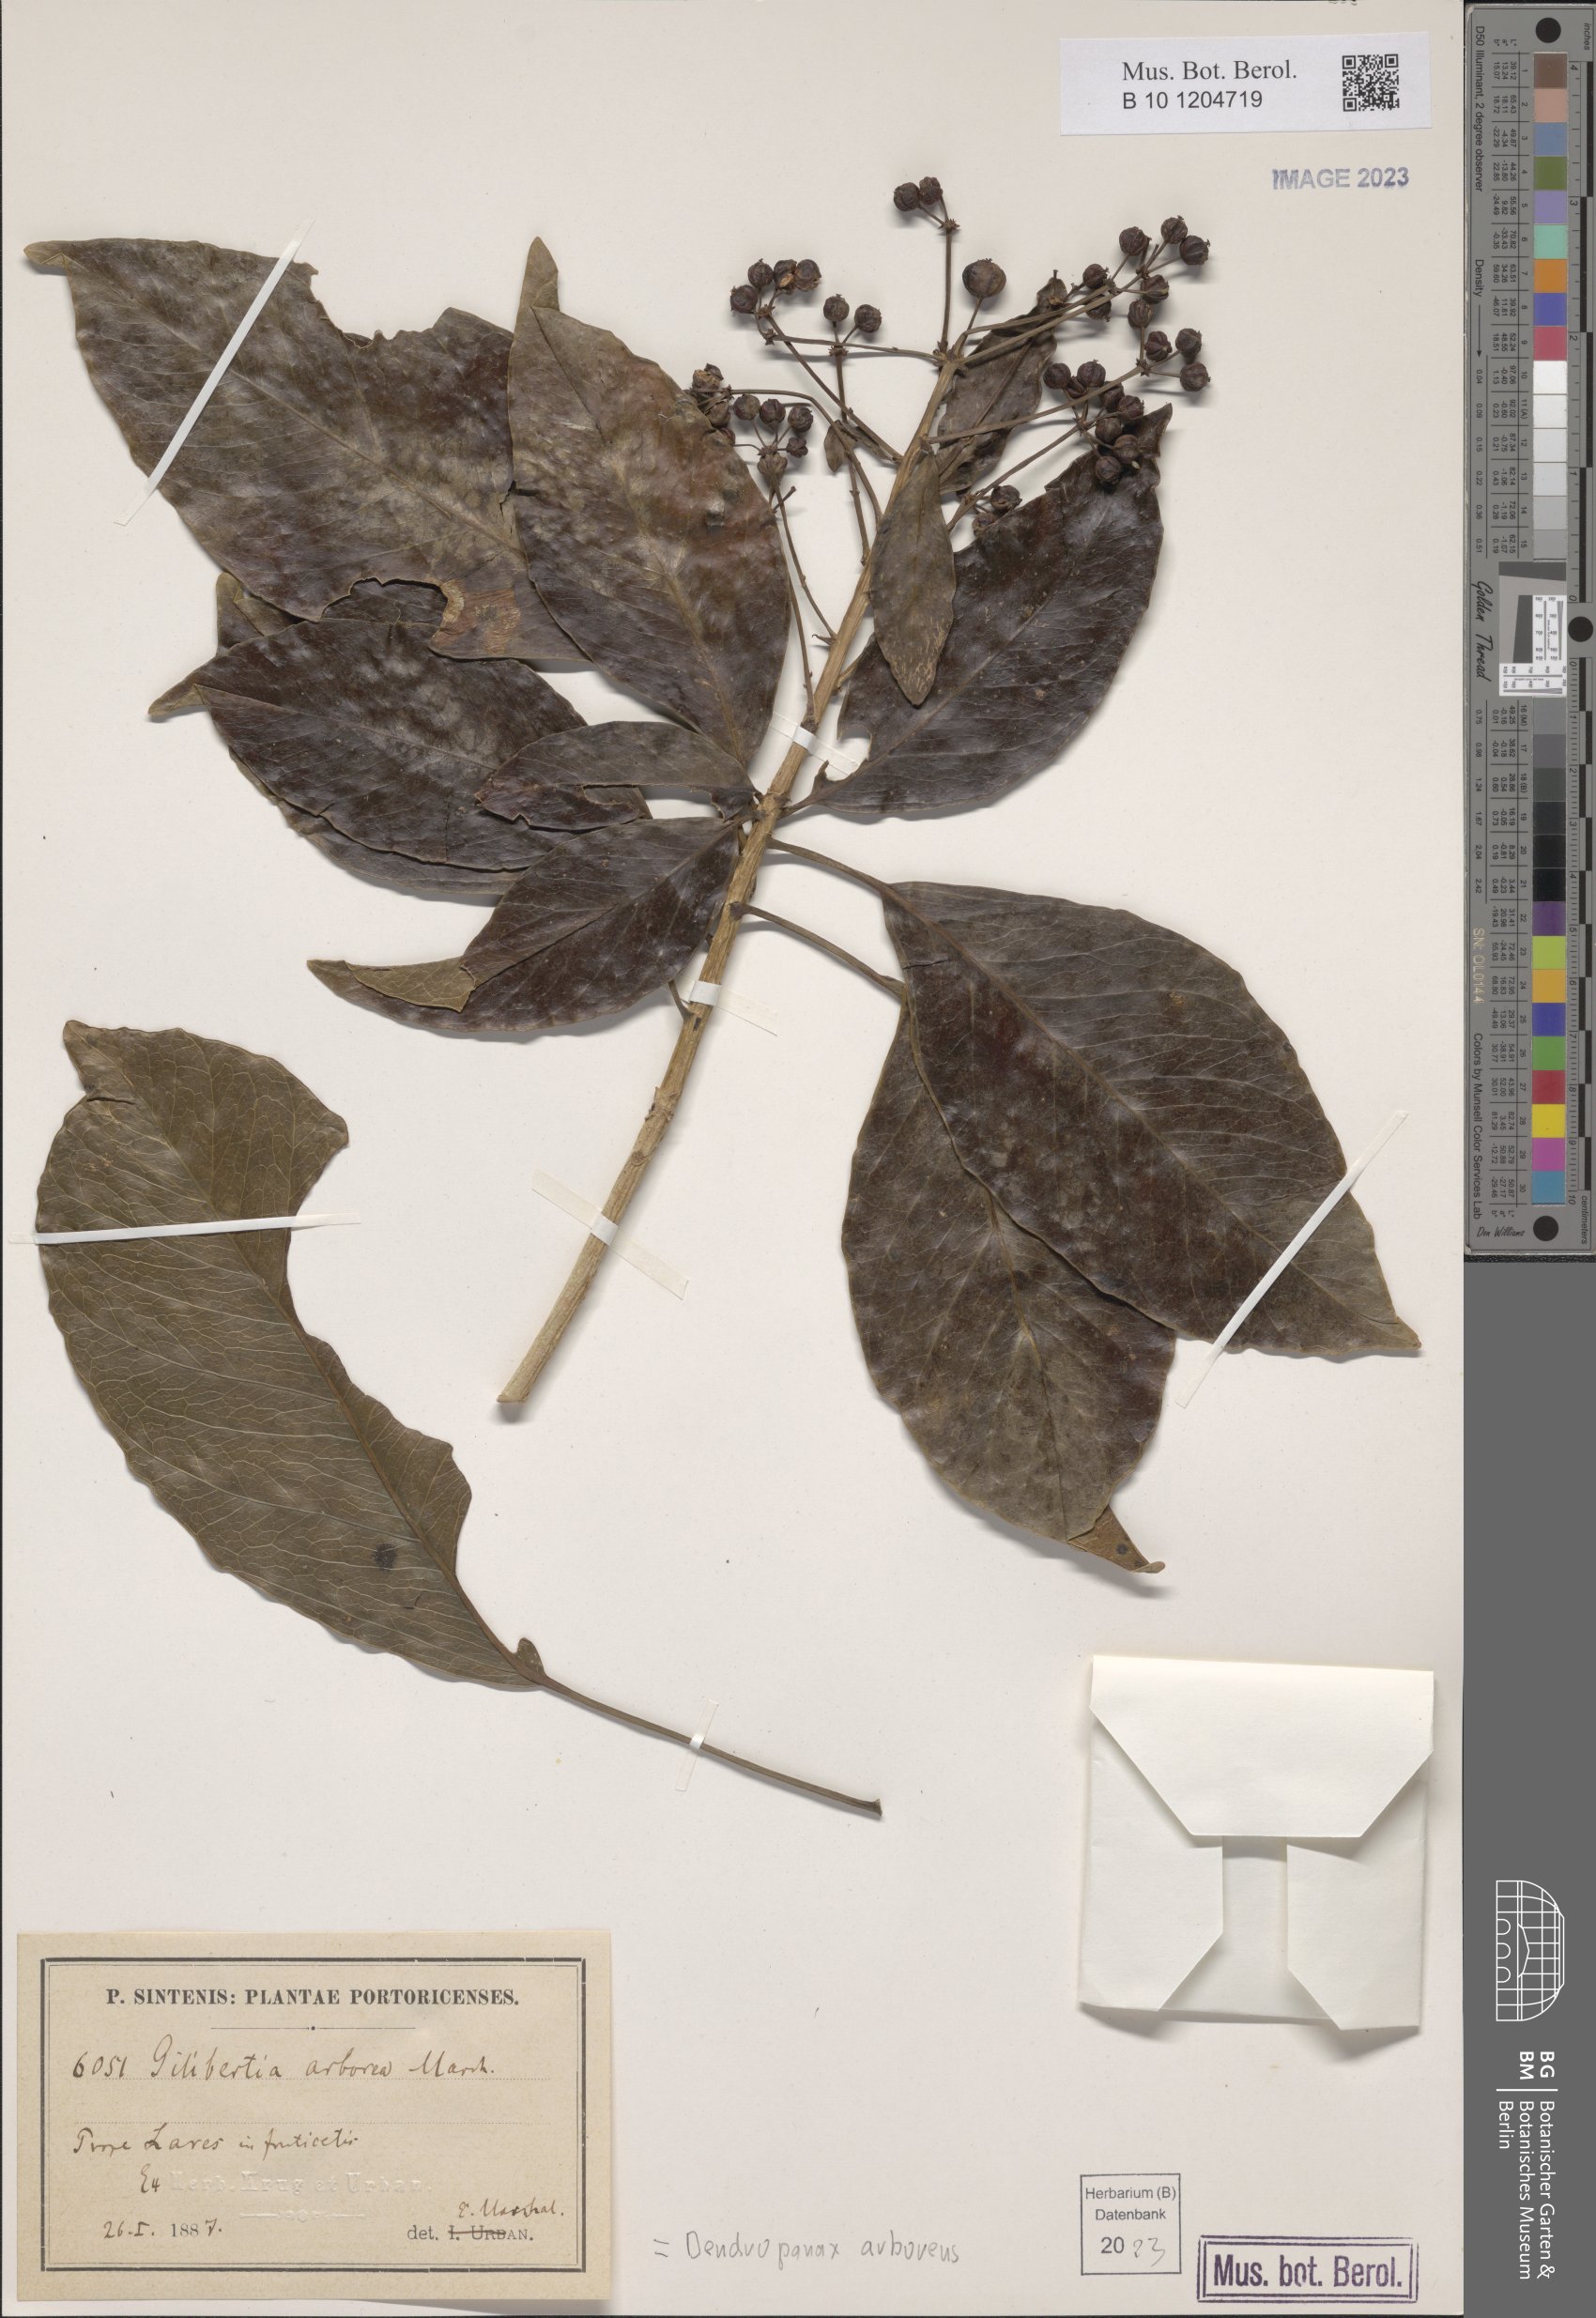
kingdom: Plantae
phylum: Tracheophyta
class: Magnoliopsida
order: Apiales
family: Araliaceae
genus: Dendropanax
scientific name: Dendropanax arboreus
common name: Potato-wood
